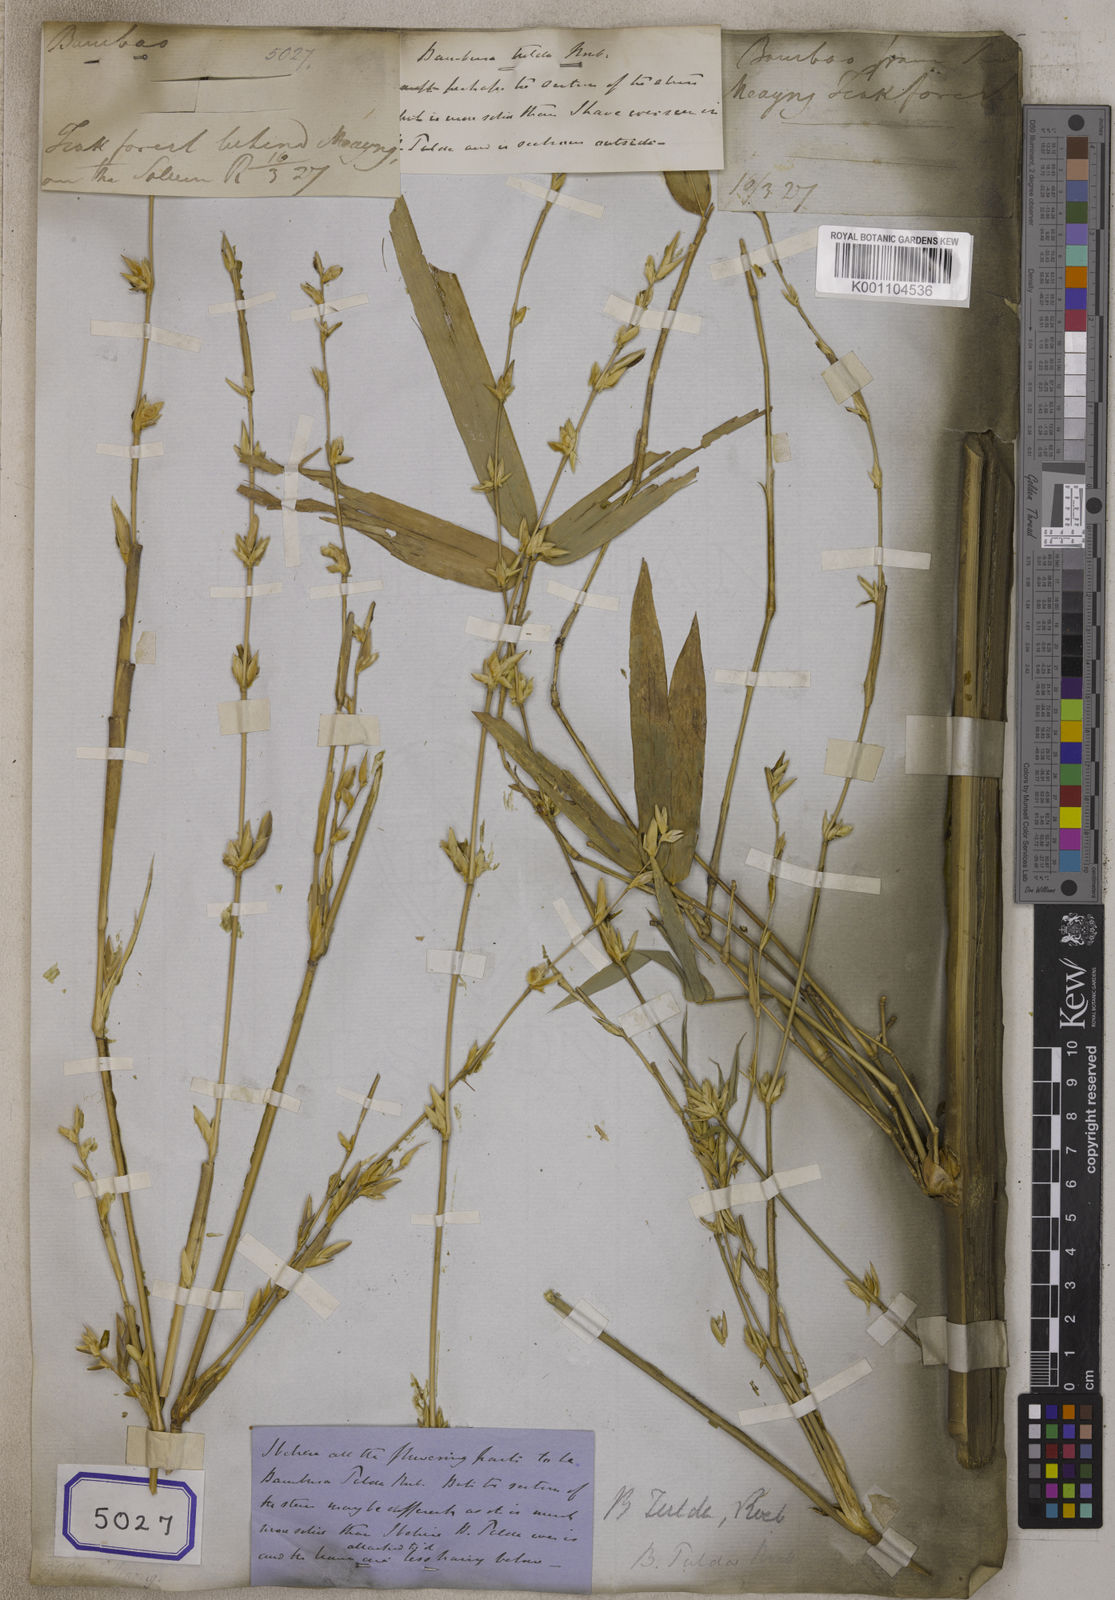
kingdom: Plantae
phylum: Tracheophyta
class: Liliopsida
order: Poales
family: Poaceae
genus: Bambusa
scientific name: Bambusa
